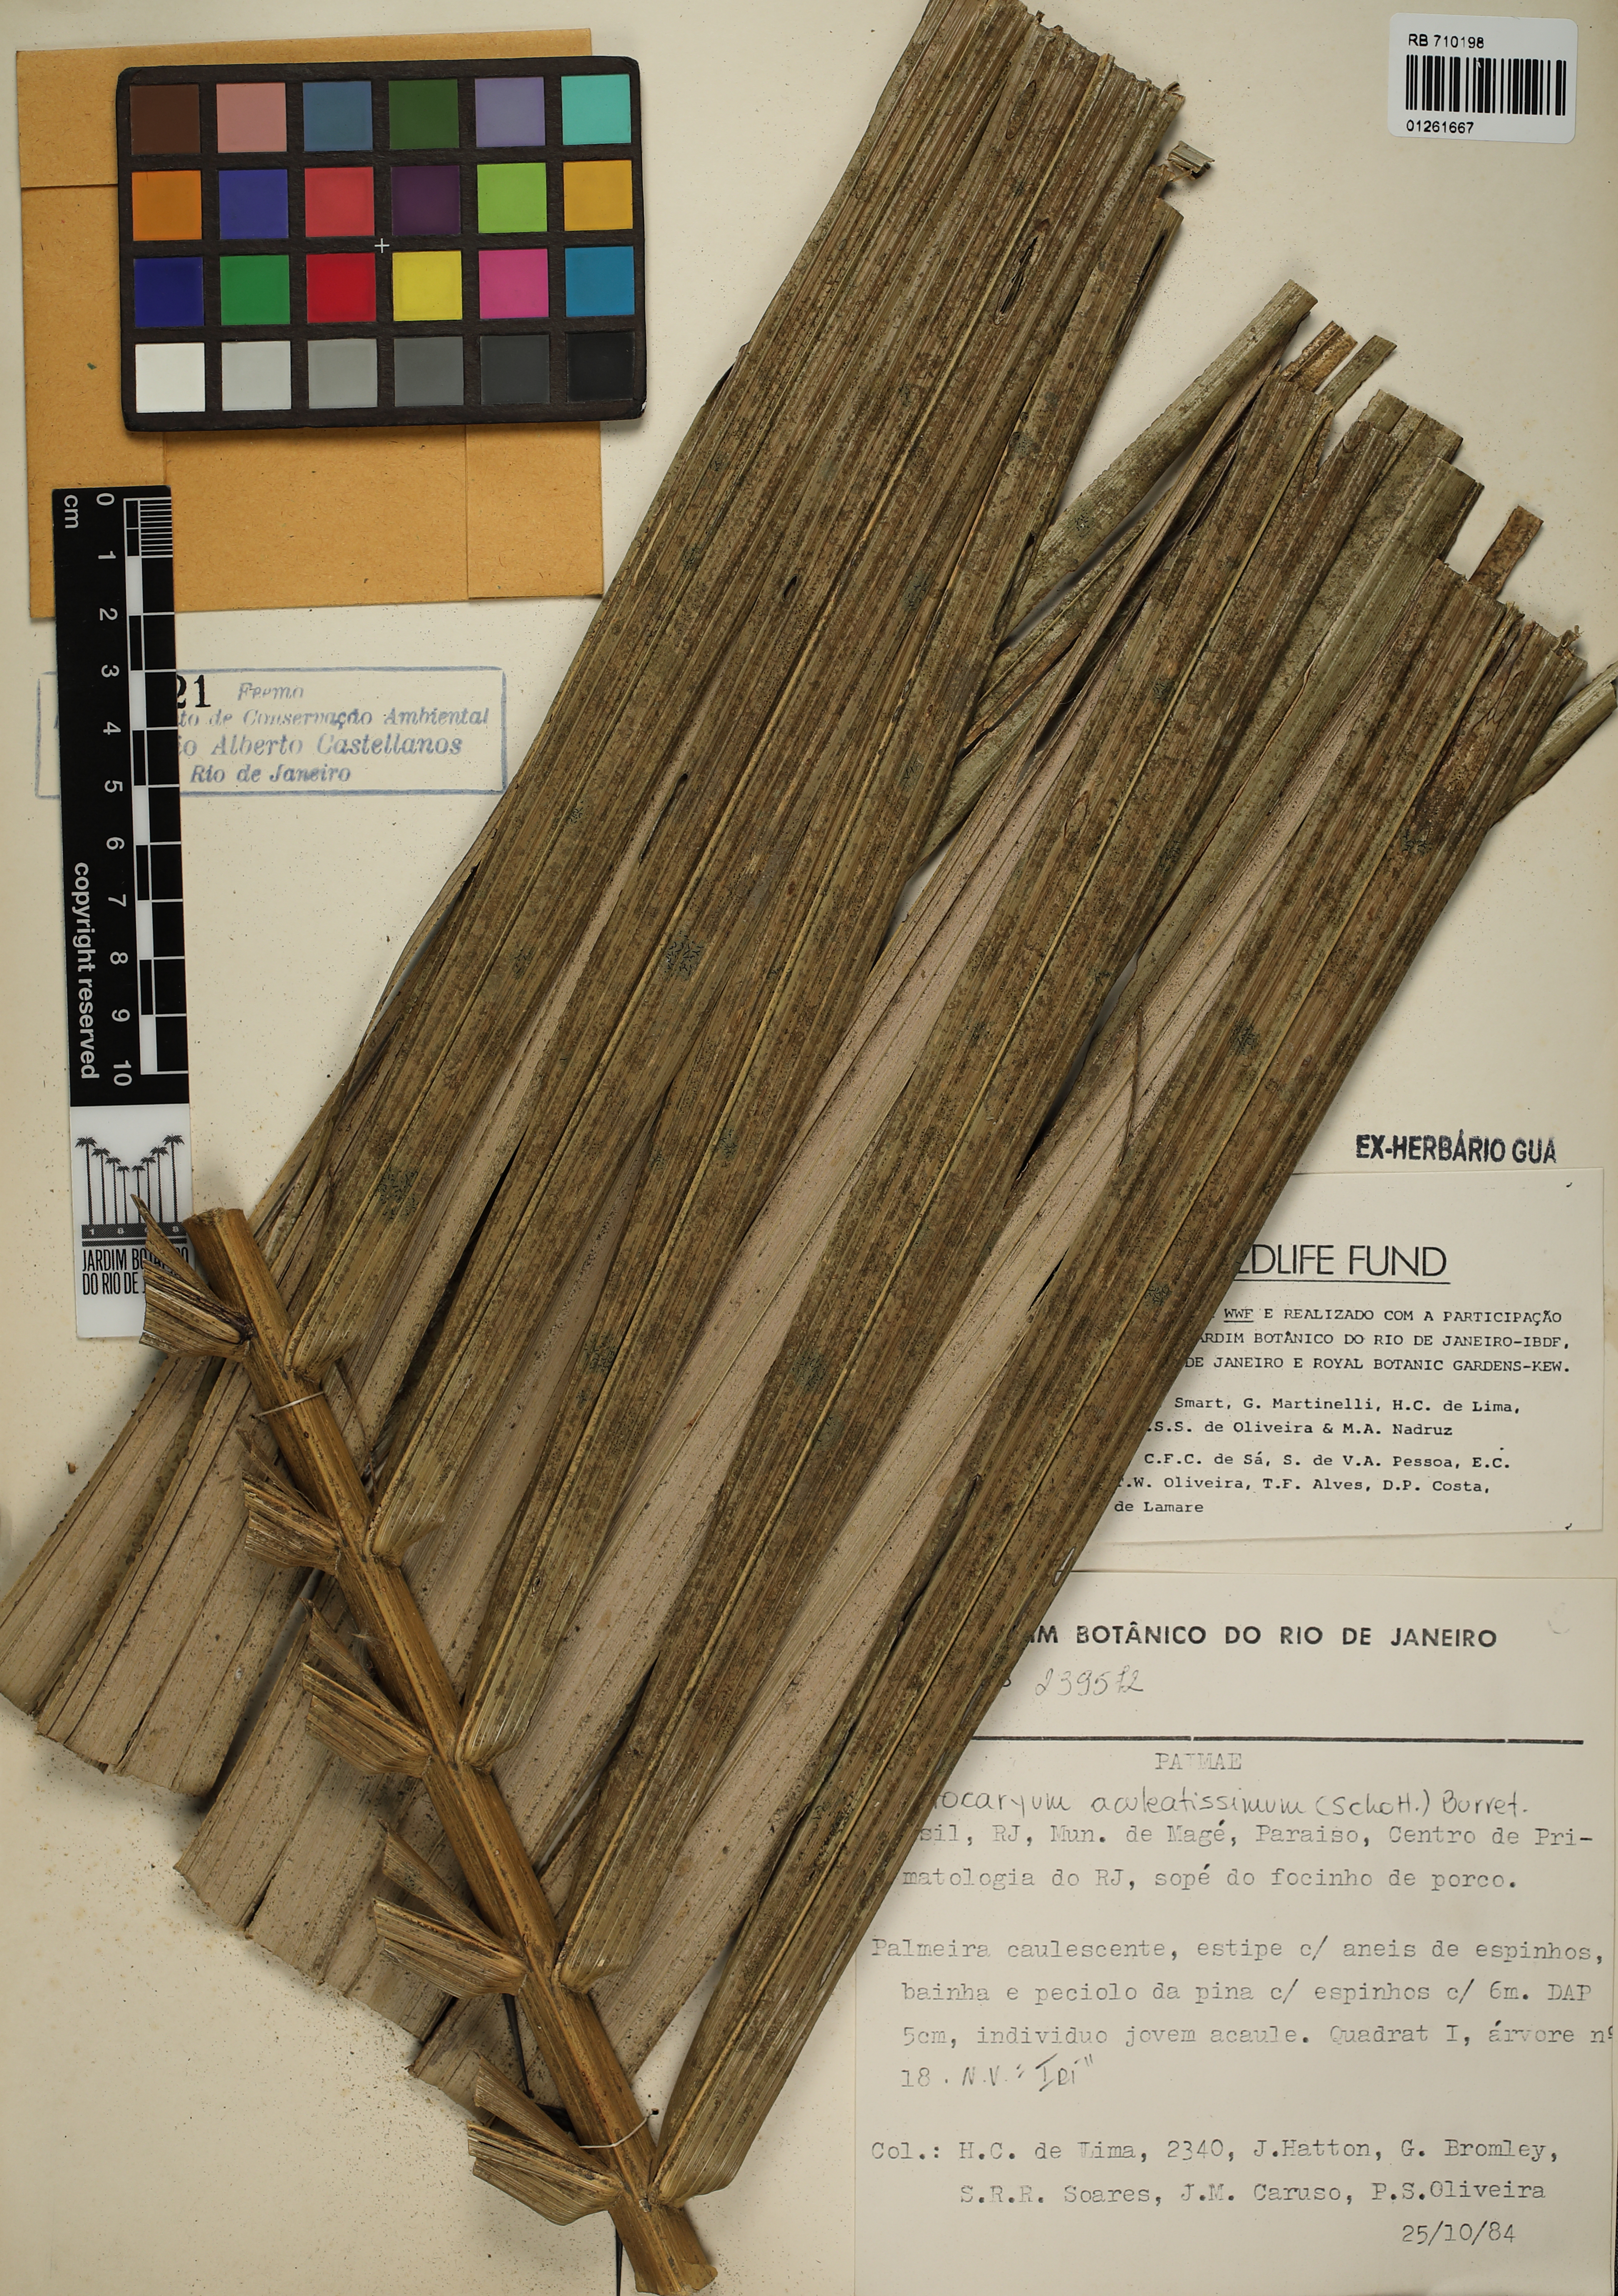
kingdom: Plantae
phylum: Tracheophyta
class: Liliopsida
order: Arecales
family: Arecaceae
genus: Astrocaryum
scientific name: Astrocaryum aculeatissimum
